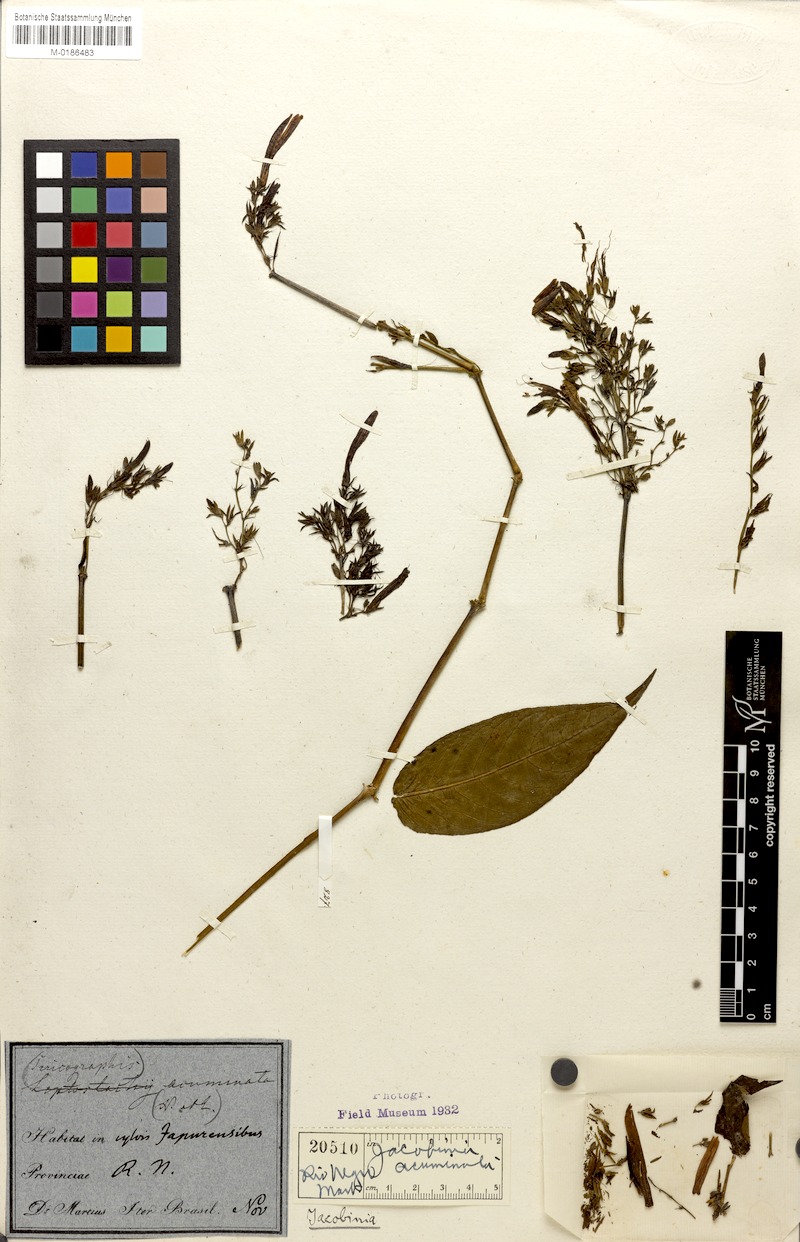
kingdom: Plantae
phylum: Tracheophyta
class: Magnoliopsida
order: Lamiales
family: Acanthaceae
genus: Justicia
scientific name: Justicia Jacobinia acuminata
